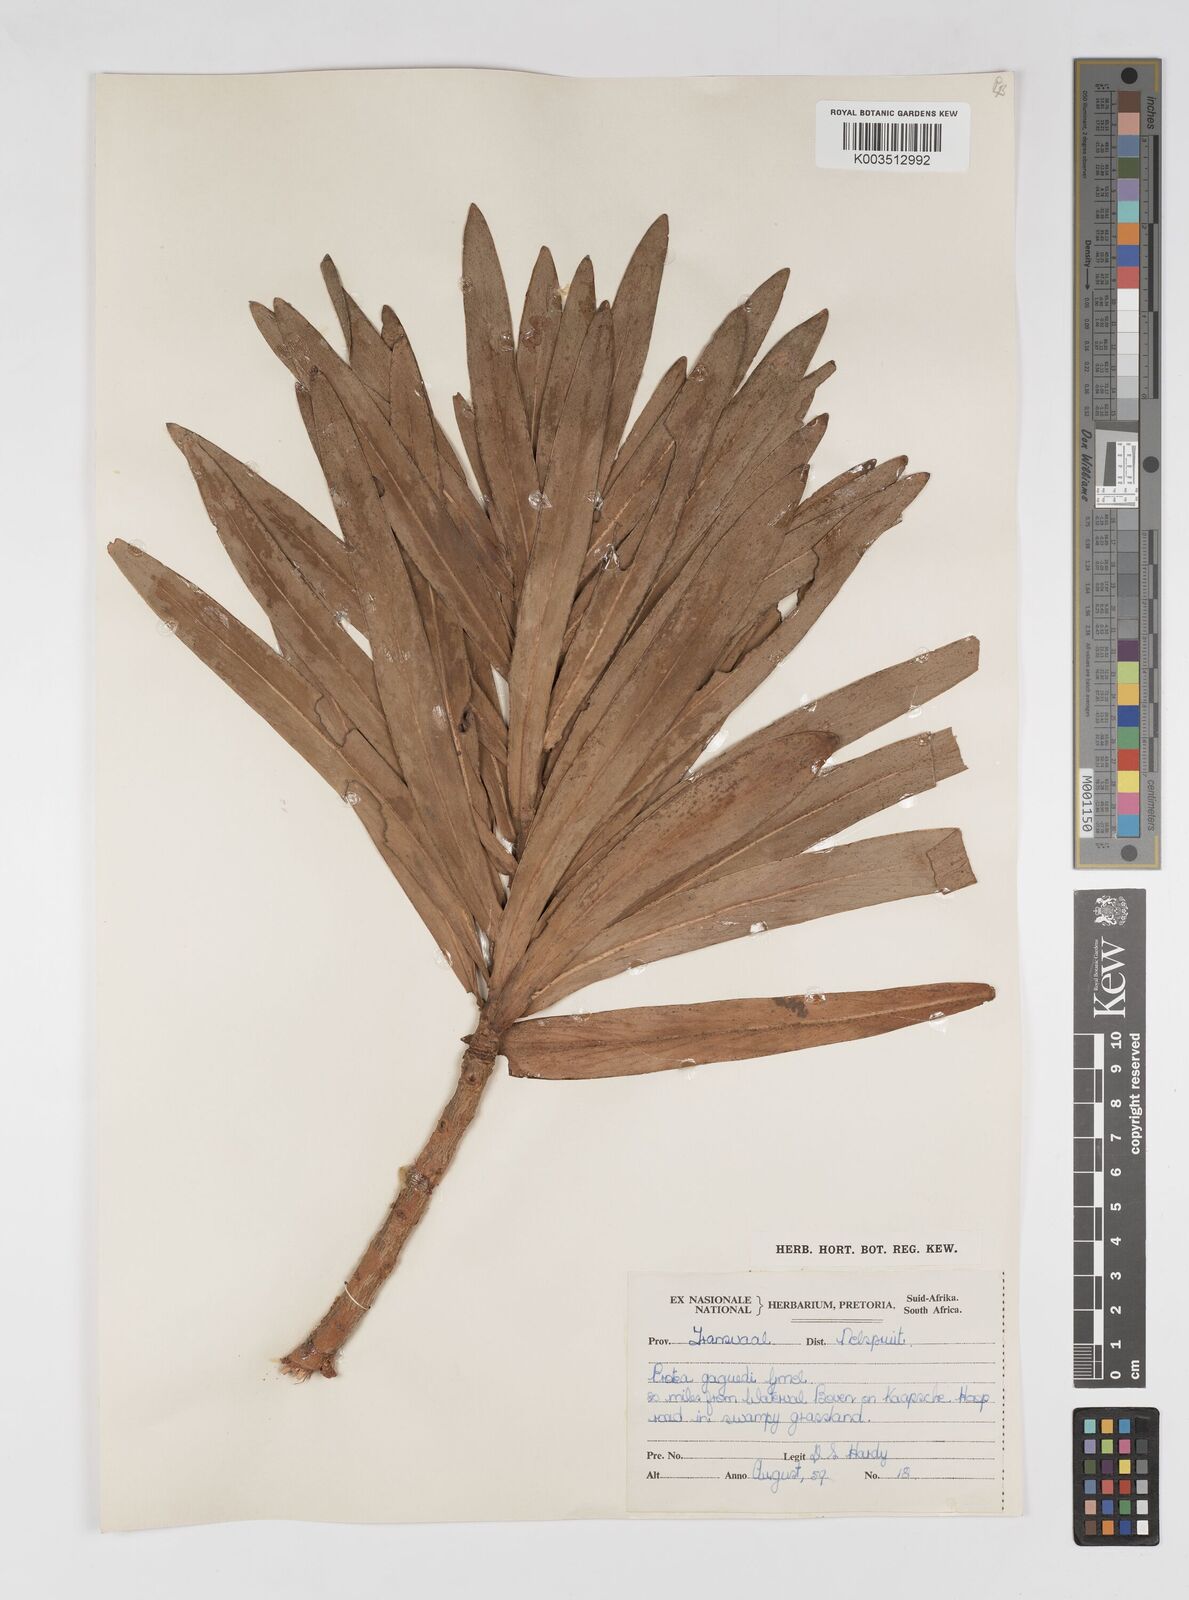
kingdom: Plantae
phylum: Tracheophyta
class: Magnoliopsida
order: Proteales
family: Proteaceae
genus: Protea
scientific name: Protea gaguedi
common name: African protea
